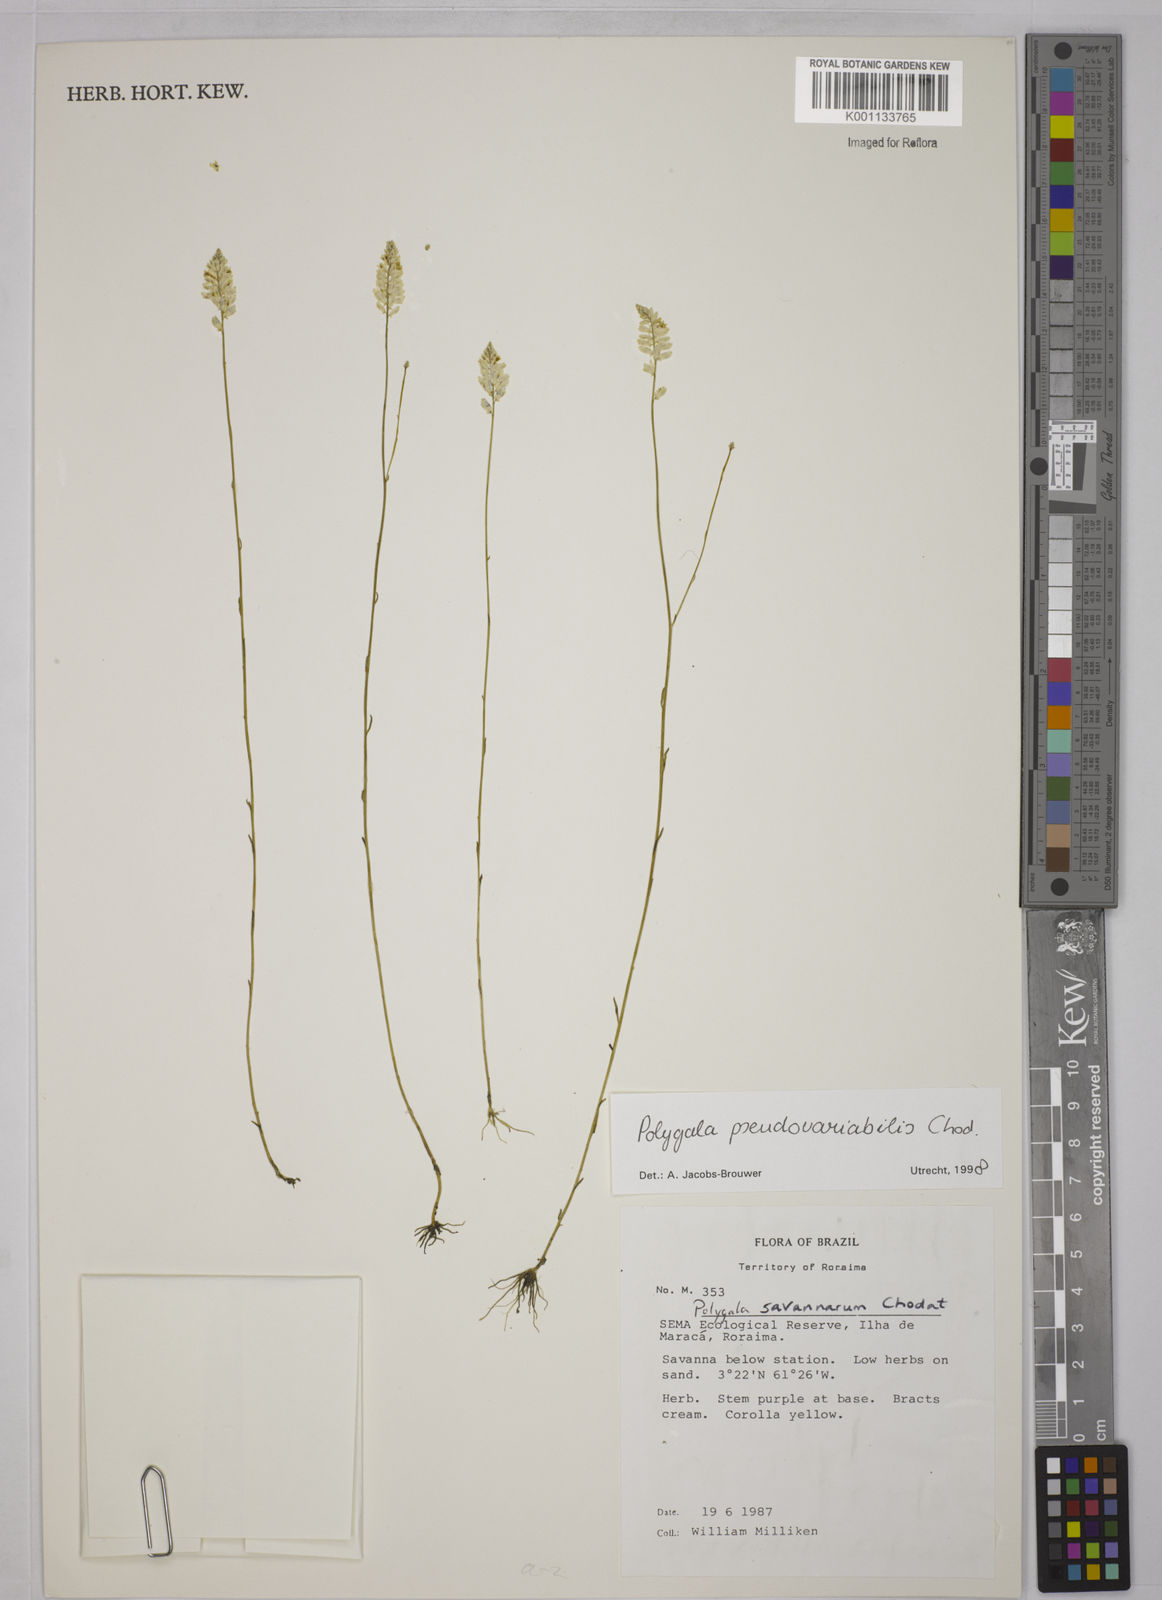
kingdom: Plantae
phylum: Tracheophyta
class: Magnoliopsida
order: Fabales
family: Polygalaceae
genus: Polygala
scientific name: Polygala pseudovariabilis
